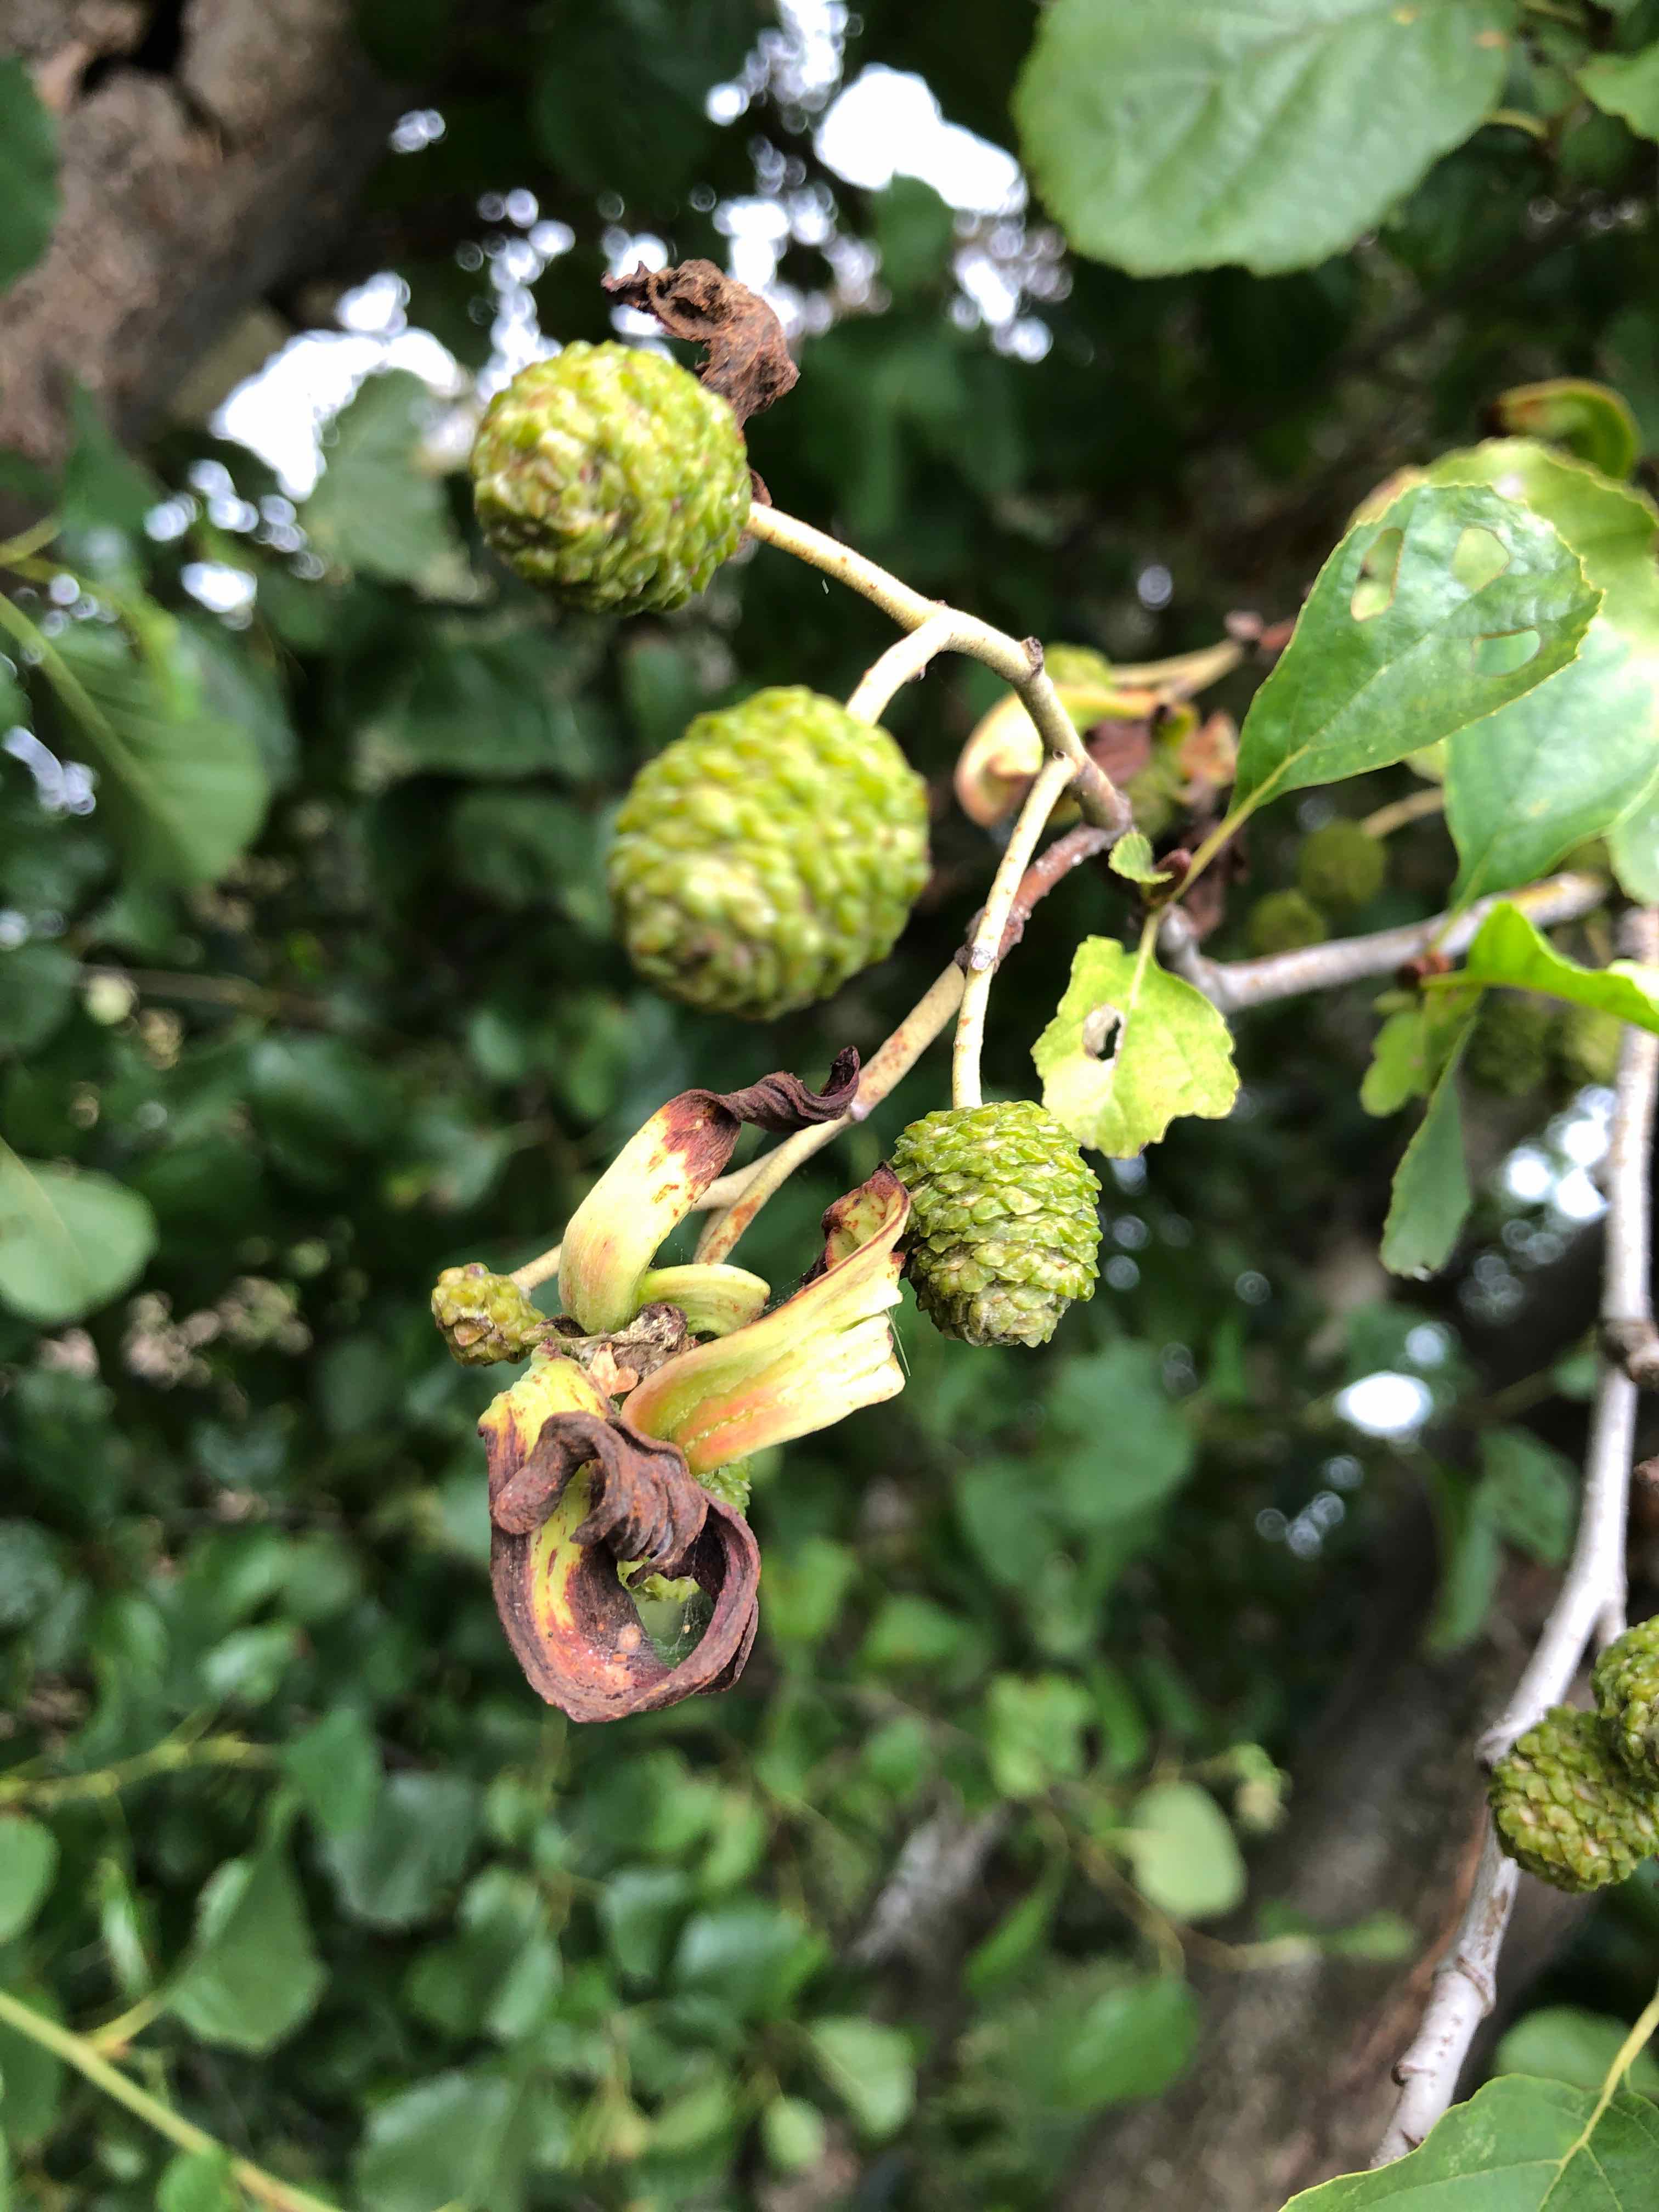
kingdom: Fungi
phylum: Ascomycota
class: Taphrinomycetes
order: Taphrinales
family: Taphrinaceae
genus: Taphrina
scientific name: Taphrina alni
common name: Alder tongue
